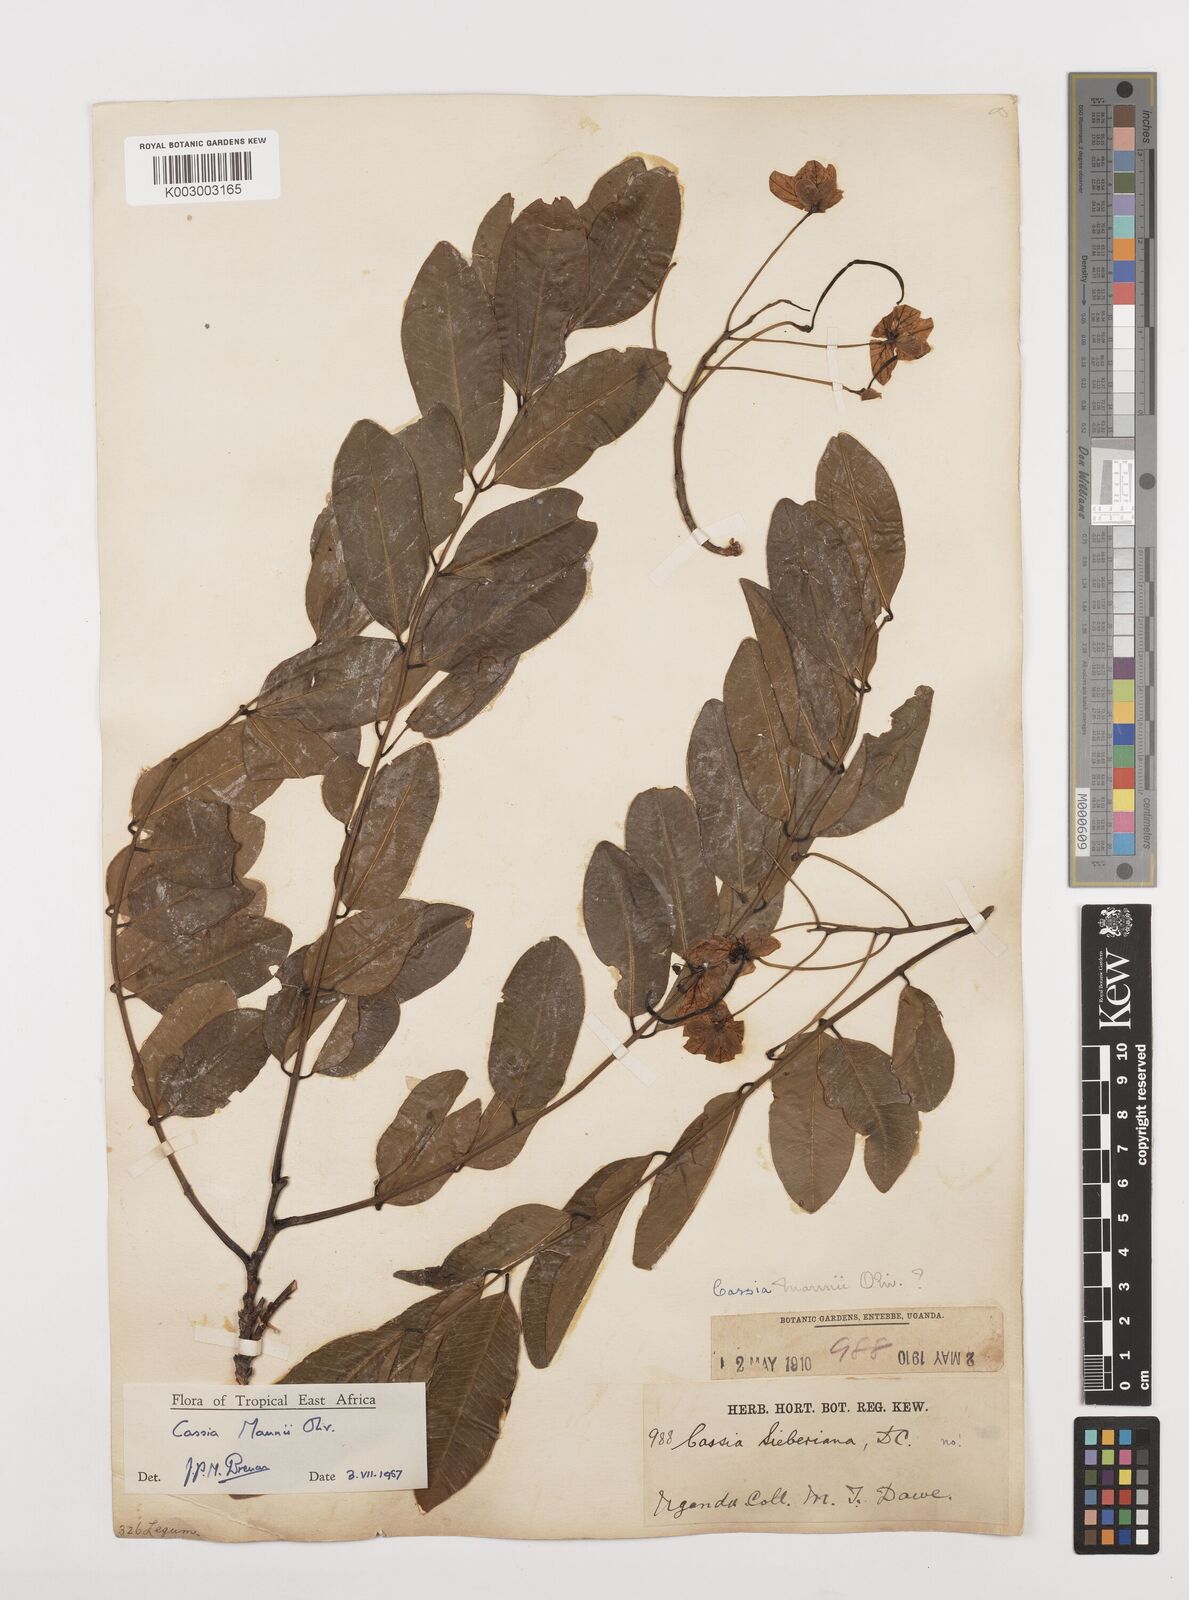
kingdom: Plantae
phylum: Tracheophyta
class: Magnoliopsida
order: Fabales
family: Fabaceae
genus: Cassia
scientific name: Cassia mannii
